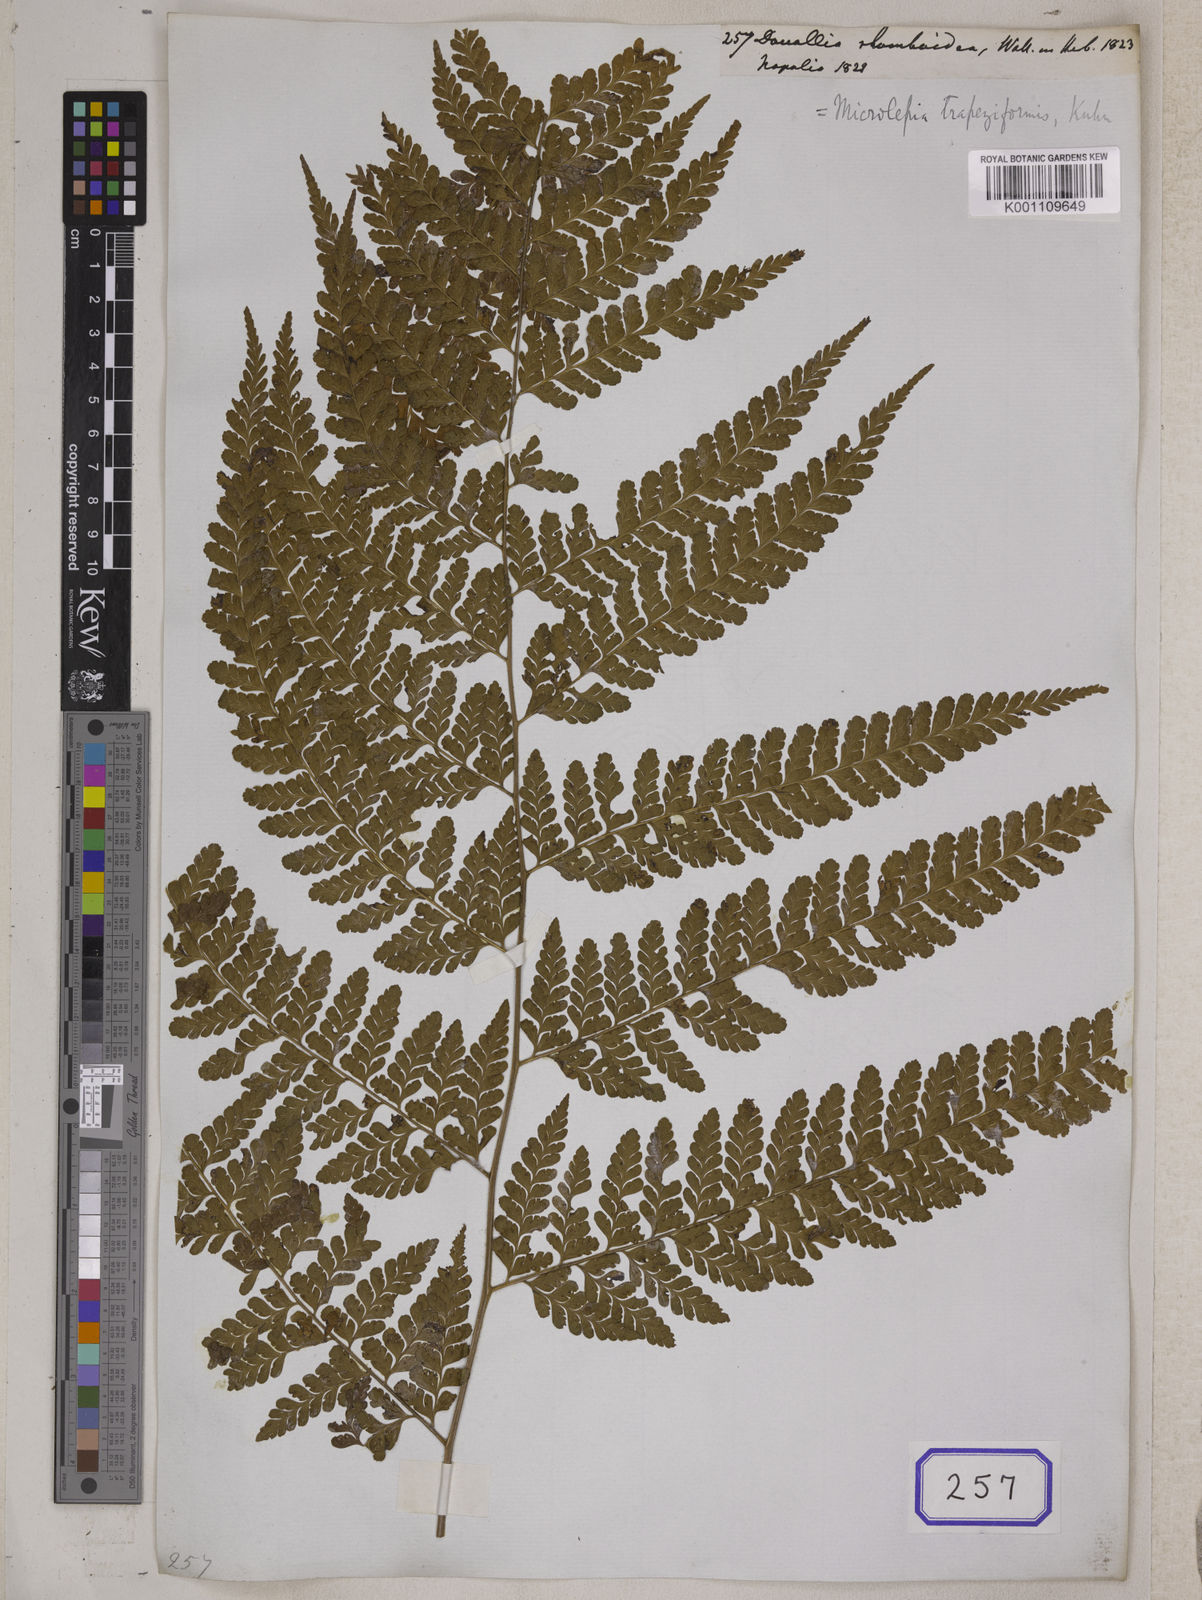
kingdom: Plantae
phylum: Tracheophyta
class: Polypodiopsida
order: Polypodiales
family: Dennstaedtiaceae
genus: Microlepia
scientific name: Microlepia rhomboidea
